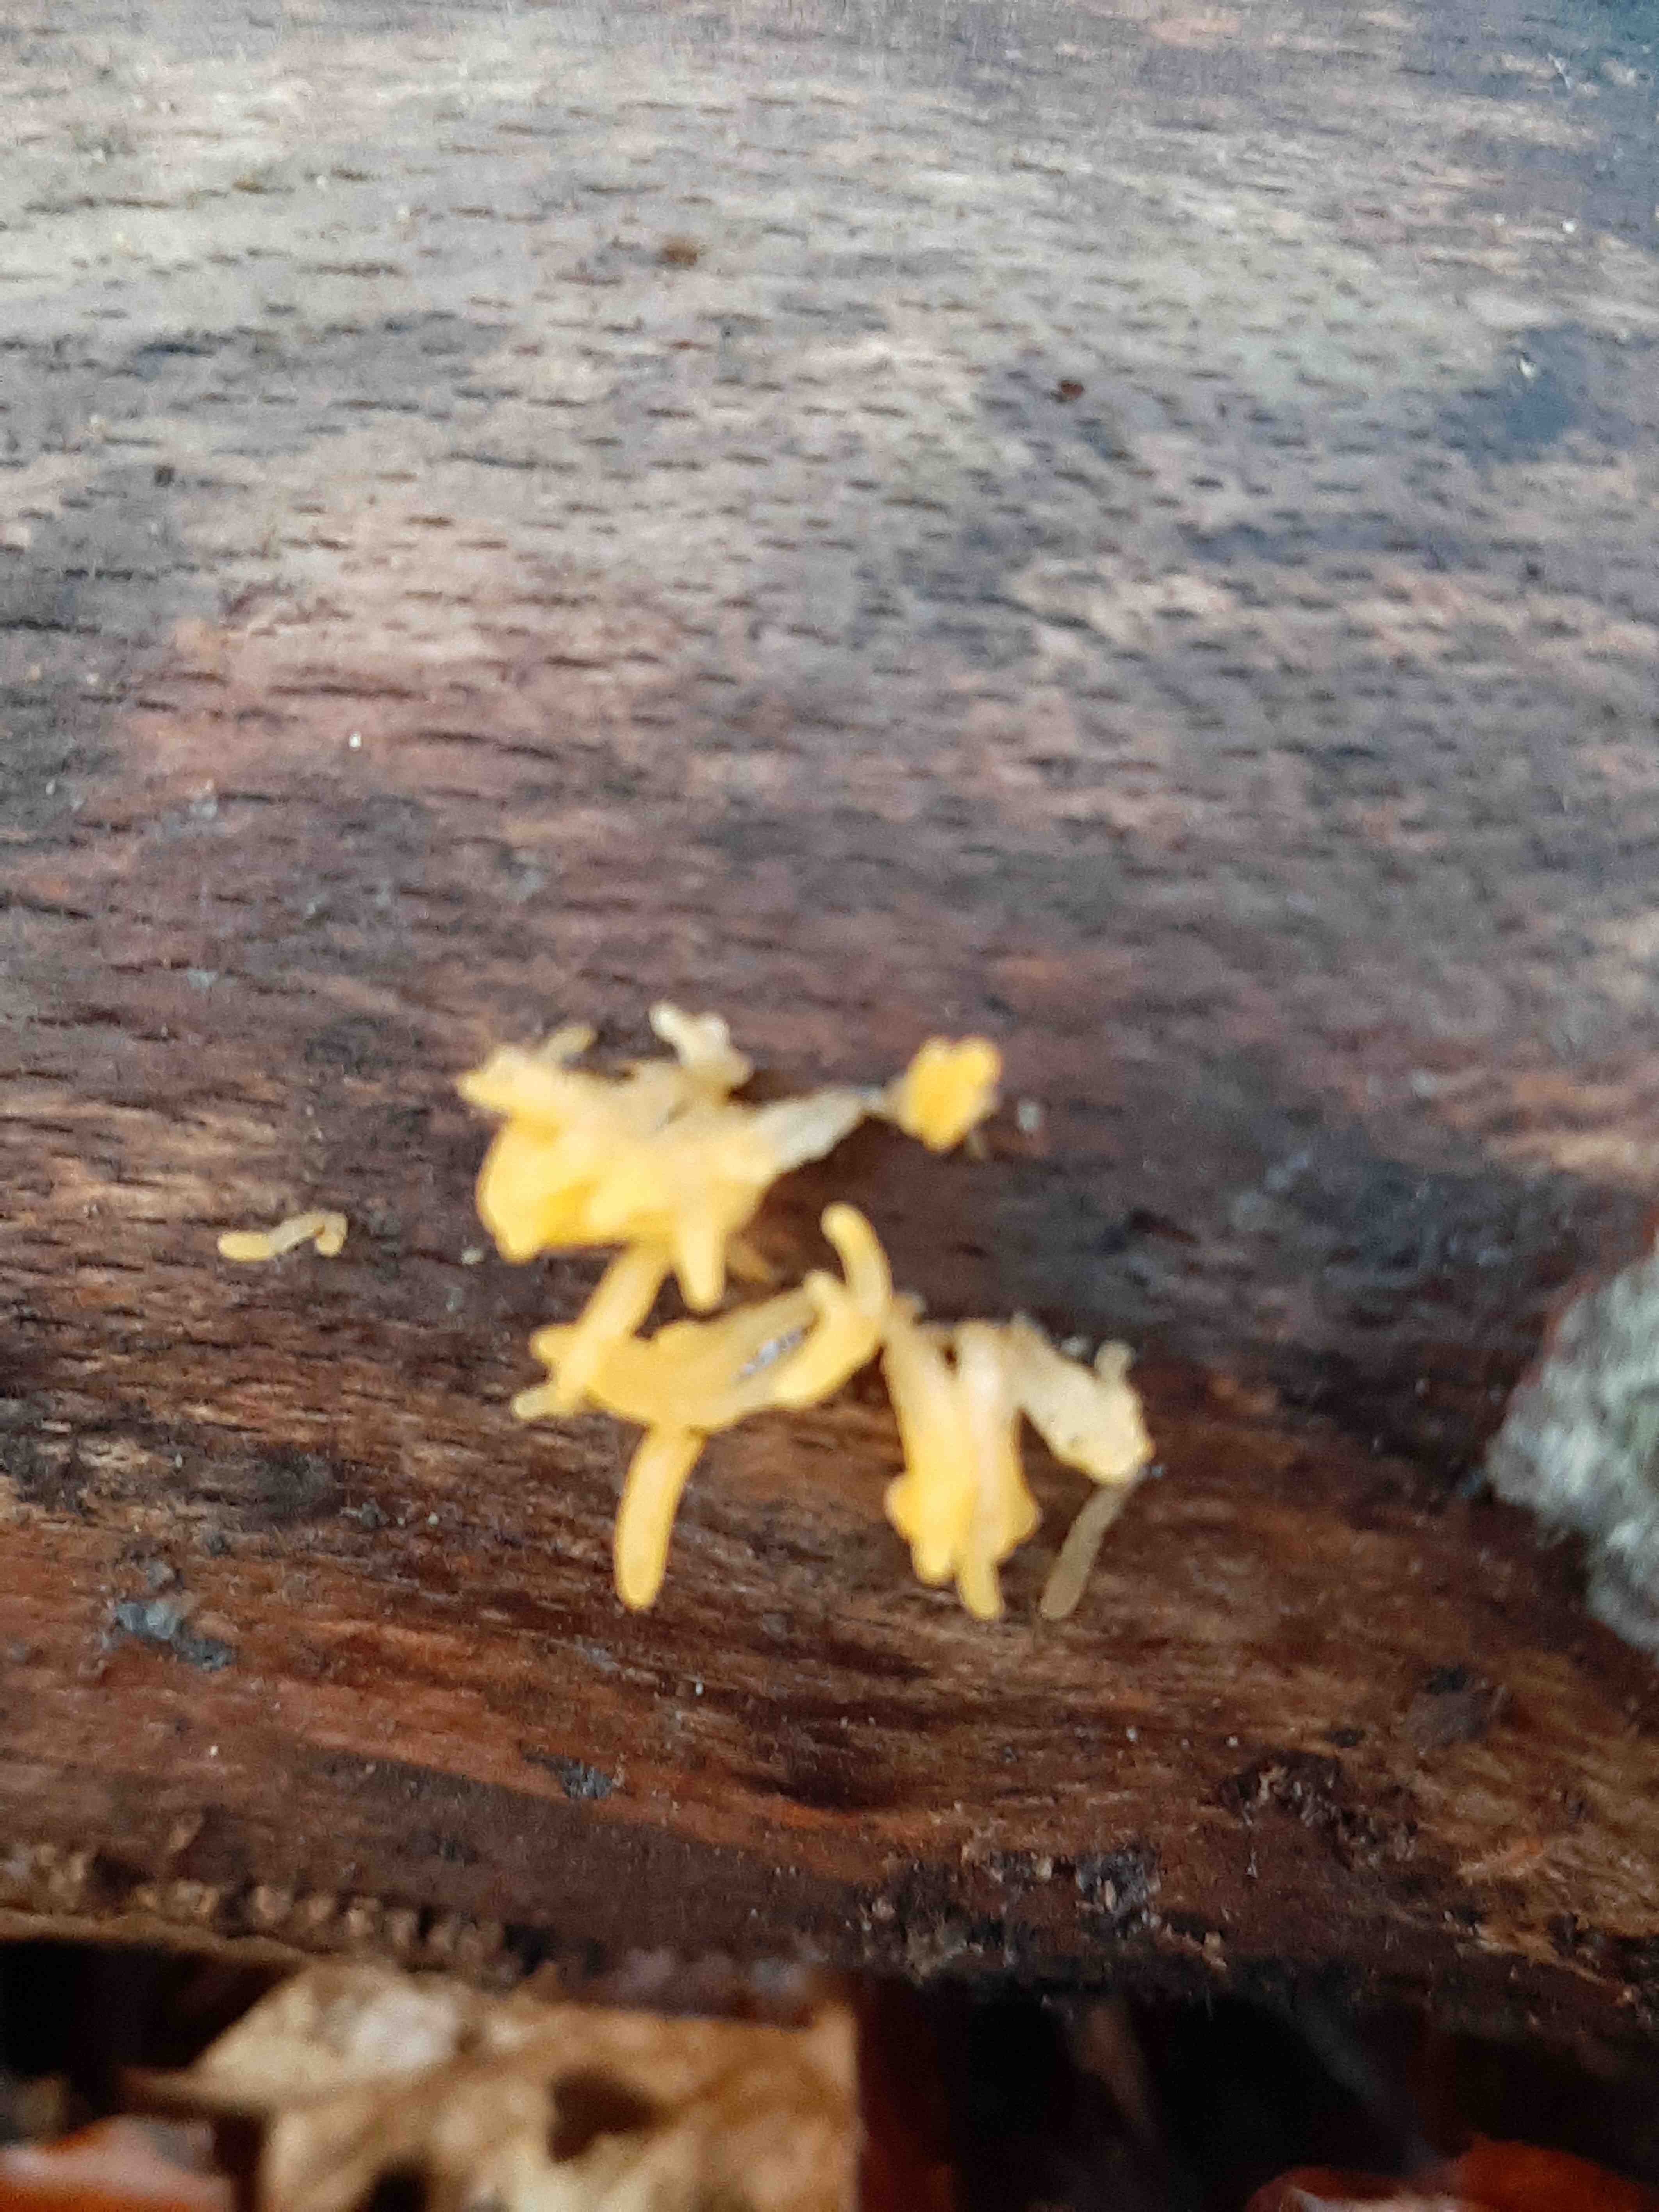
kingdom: Fungi
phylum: Basidiomycota
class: Dacrymycetes
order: Dacrymycetales
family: Dacrymycetaceae
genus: Calocera
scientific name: Calocera cornea
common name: liden guldgaffel
